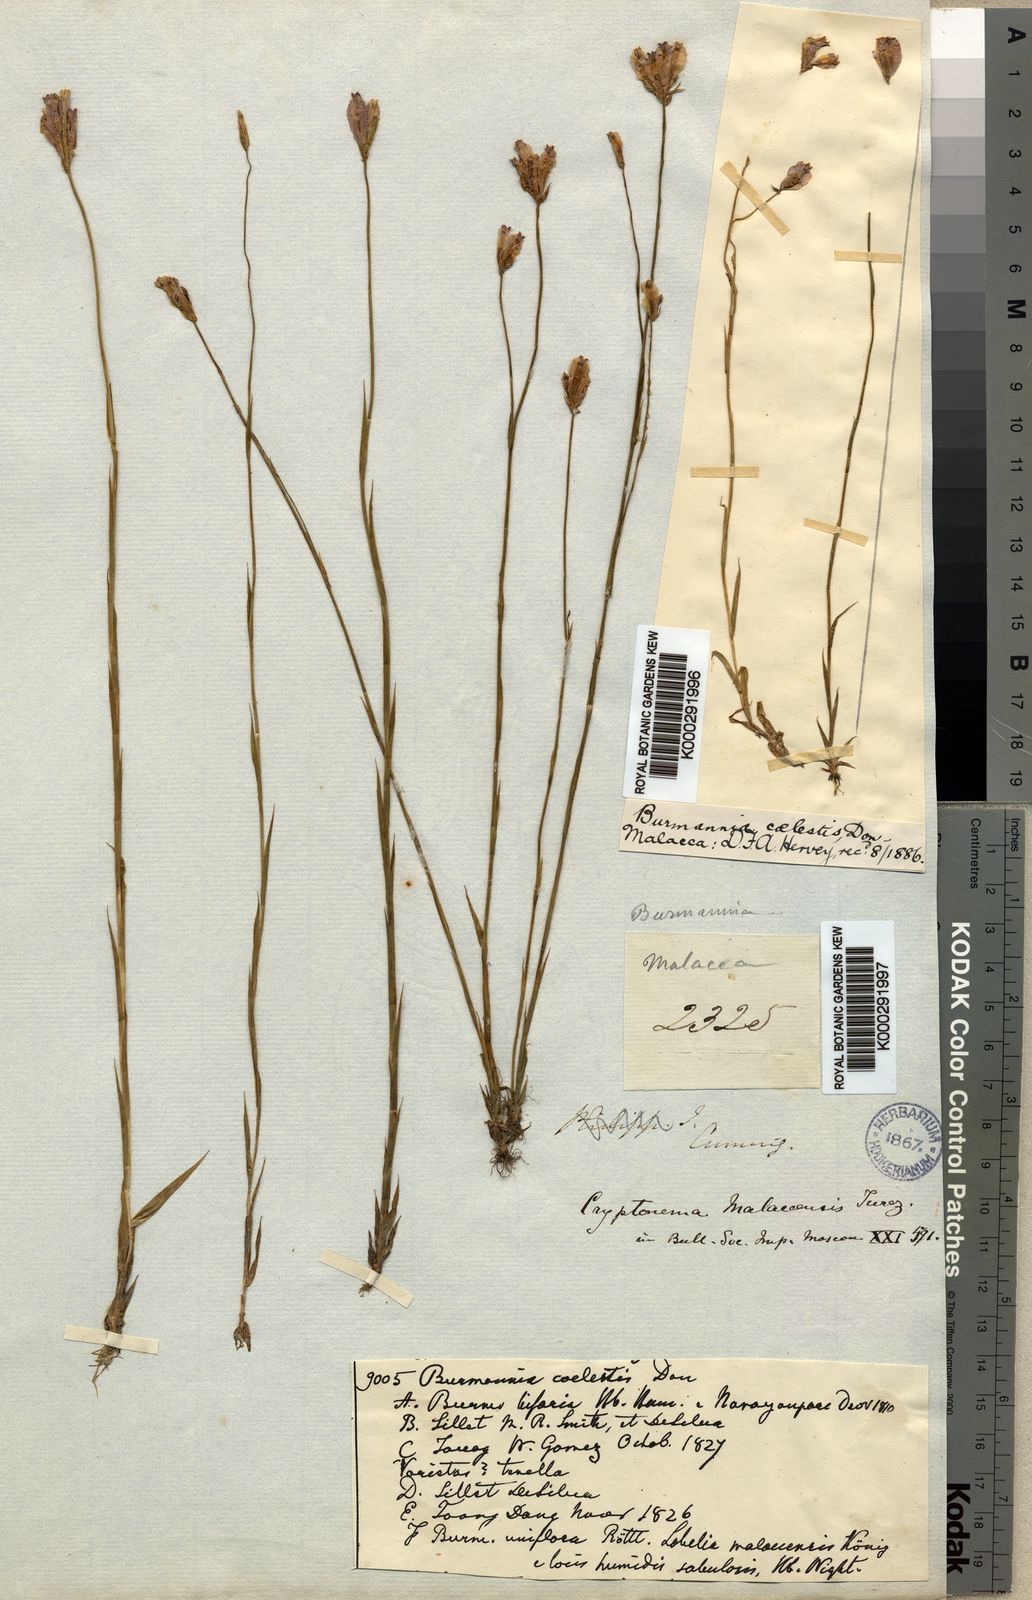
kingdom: Plantae
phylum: Tracheophyta
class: Liliopsida
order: Dioscoreales
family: Burmanniaceae
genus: Burmannia
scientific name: Burmannia coelestis
